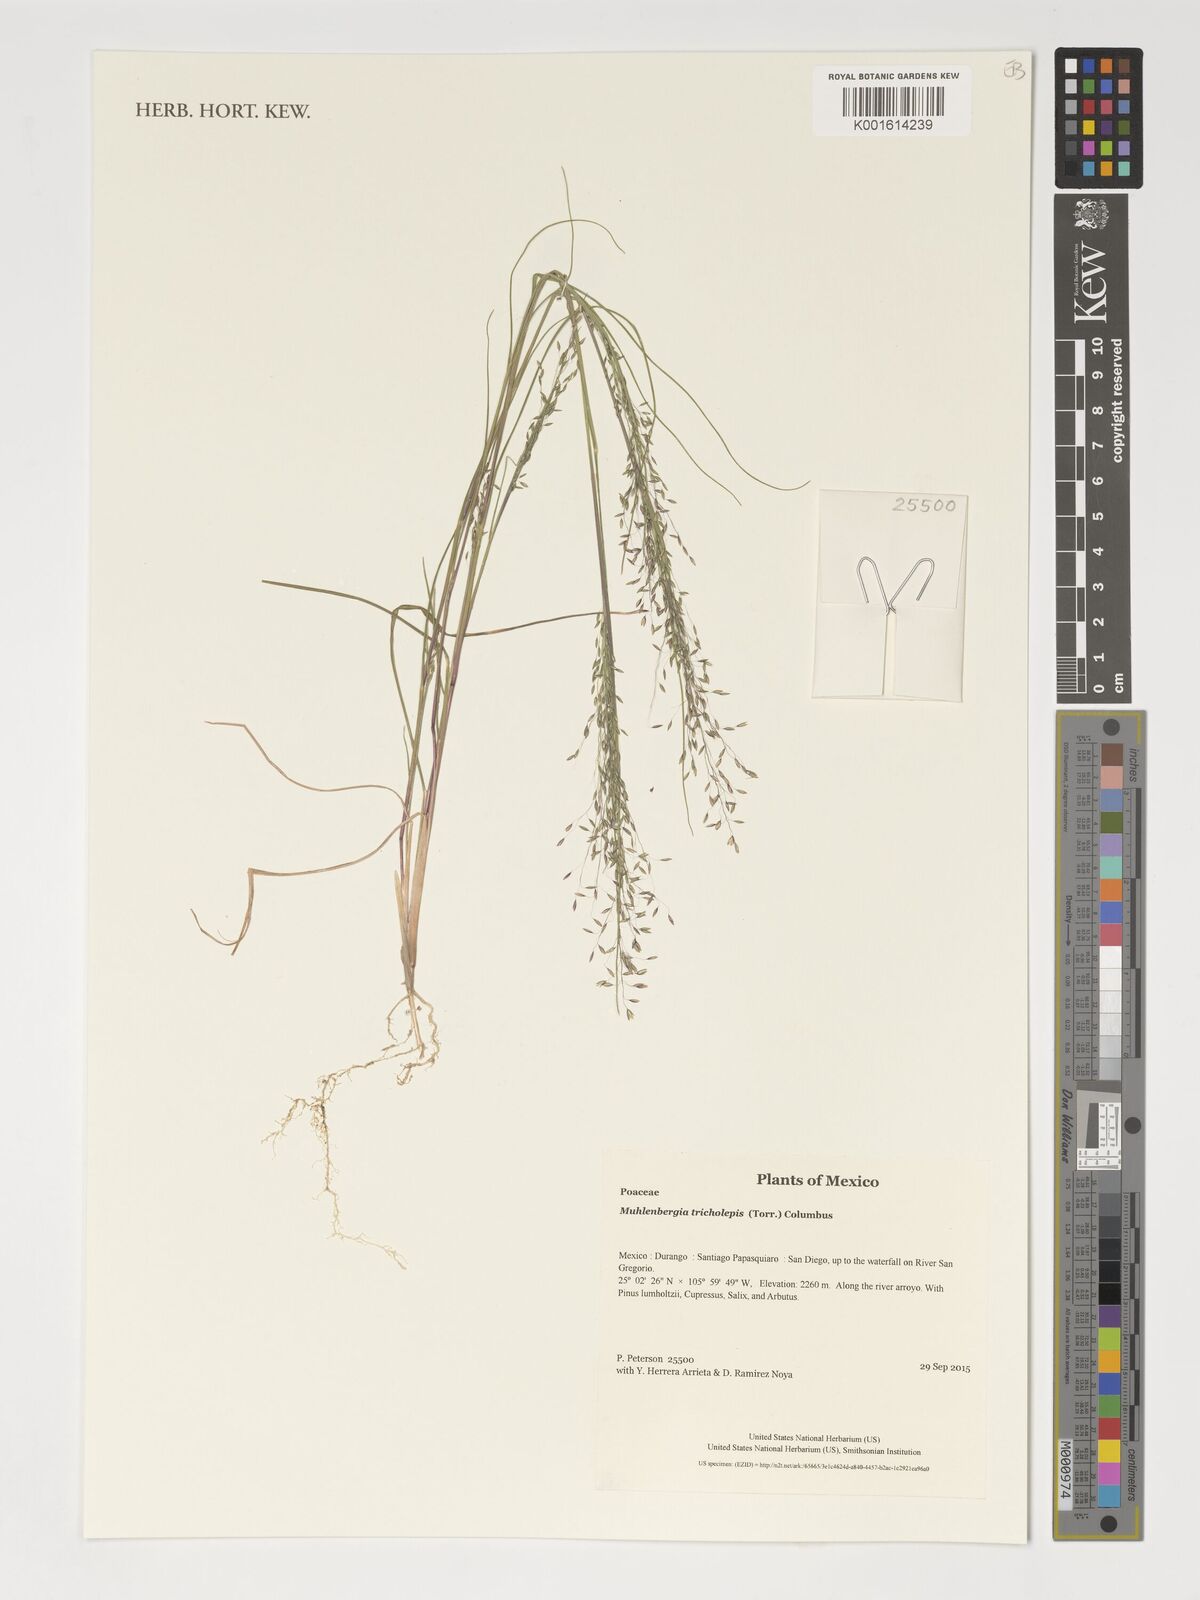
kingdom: Plantae
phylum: Tracheophyta
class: Liliopsida
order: Poales
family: Poaceae
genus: Muhlenbergia
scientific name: Muhlenbergia tricholepis
